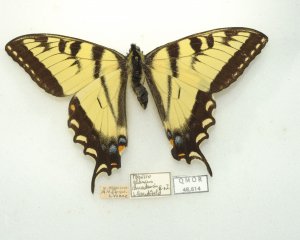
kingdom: Animalia
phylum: Arthropoda
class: Insecta
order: Lepidoptera
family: Papilionidae
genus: Pterourus
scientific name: Pterourus canadensis
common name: Canadian Tiger Swallowtail
